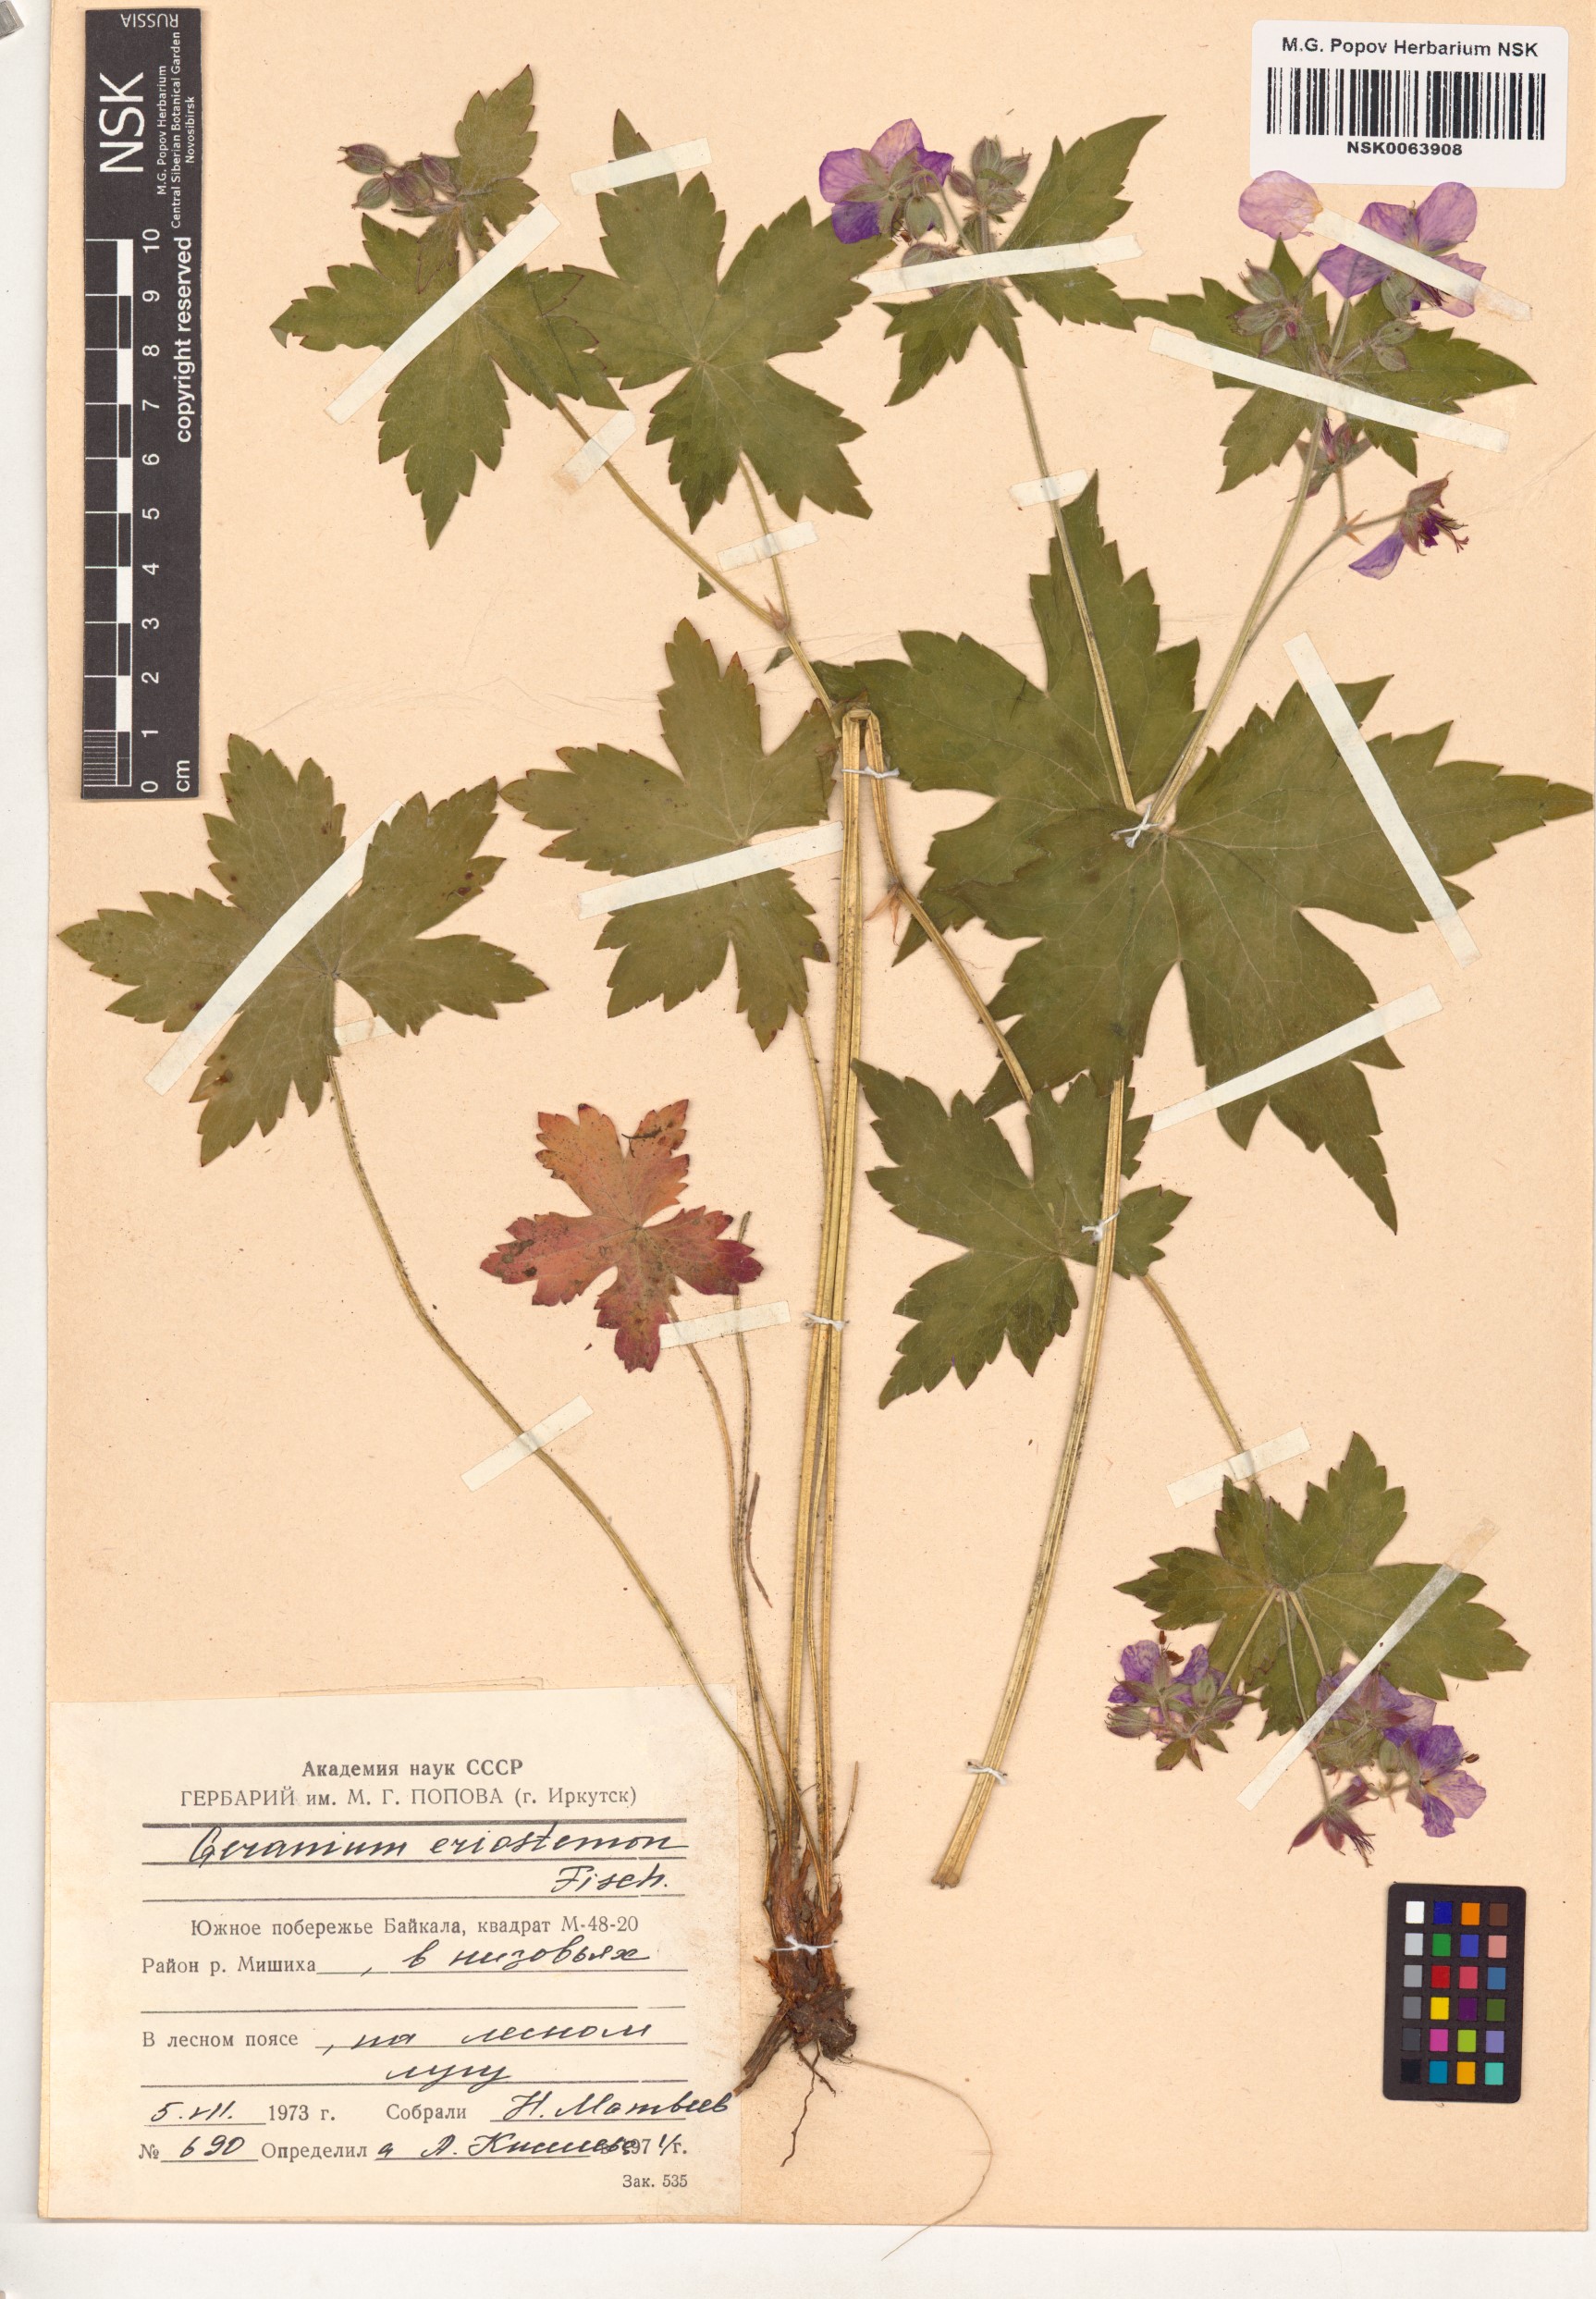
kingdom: Plantae
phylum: Tracheophyta
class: Magnoliopsida
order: Geraniales
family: Geraniaceae
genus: Geranium
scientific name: Geranium platyanthum
